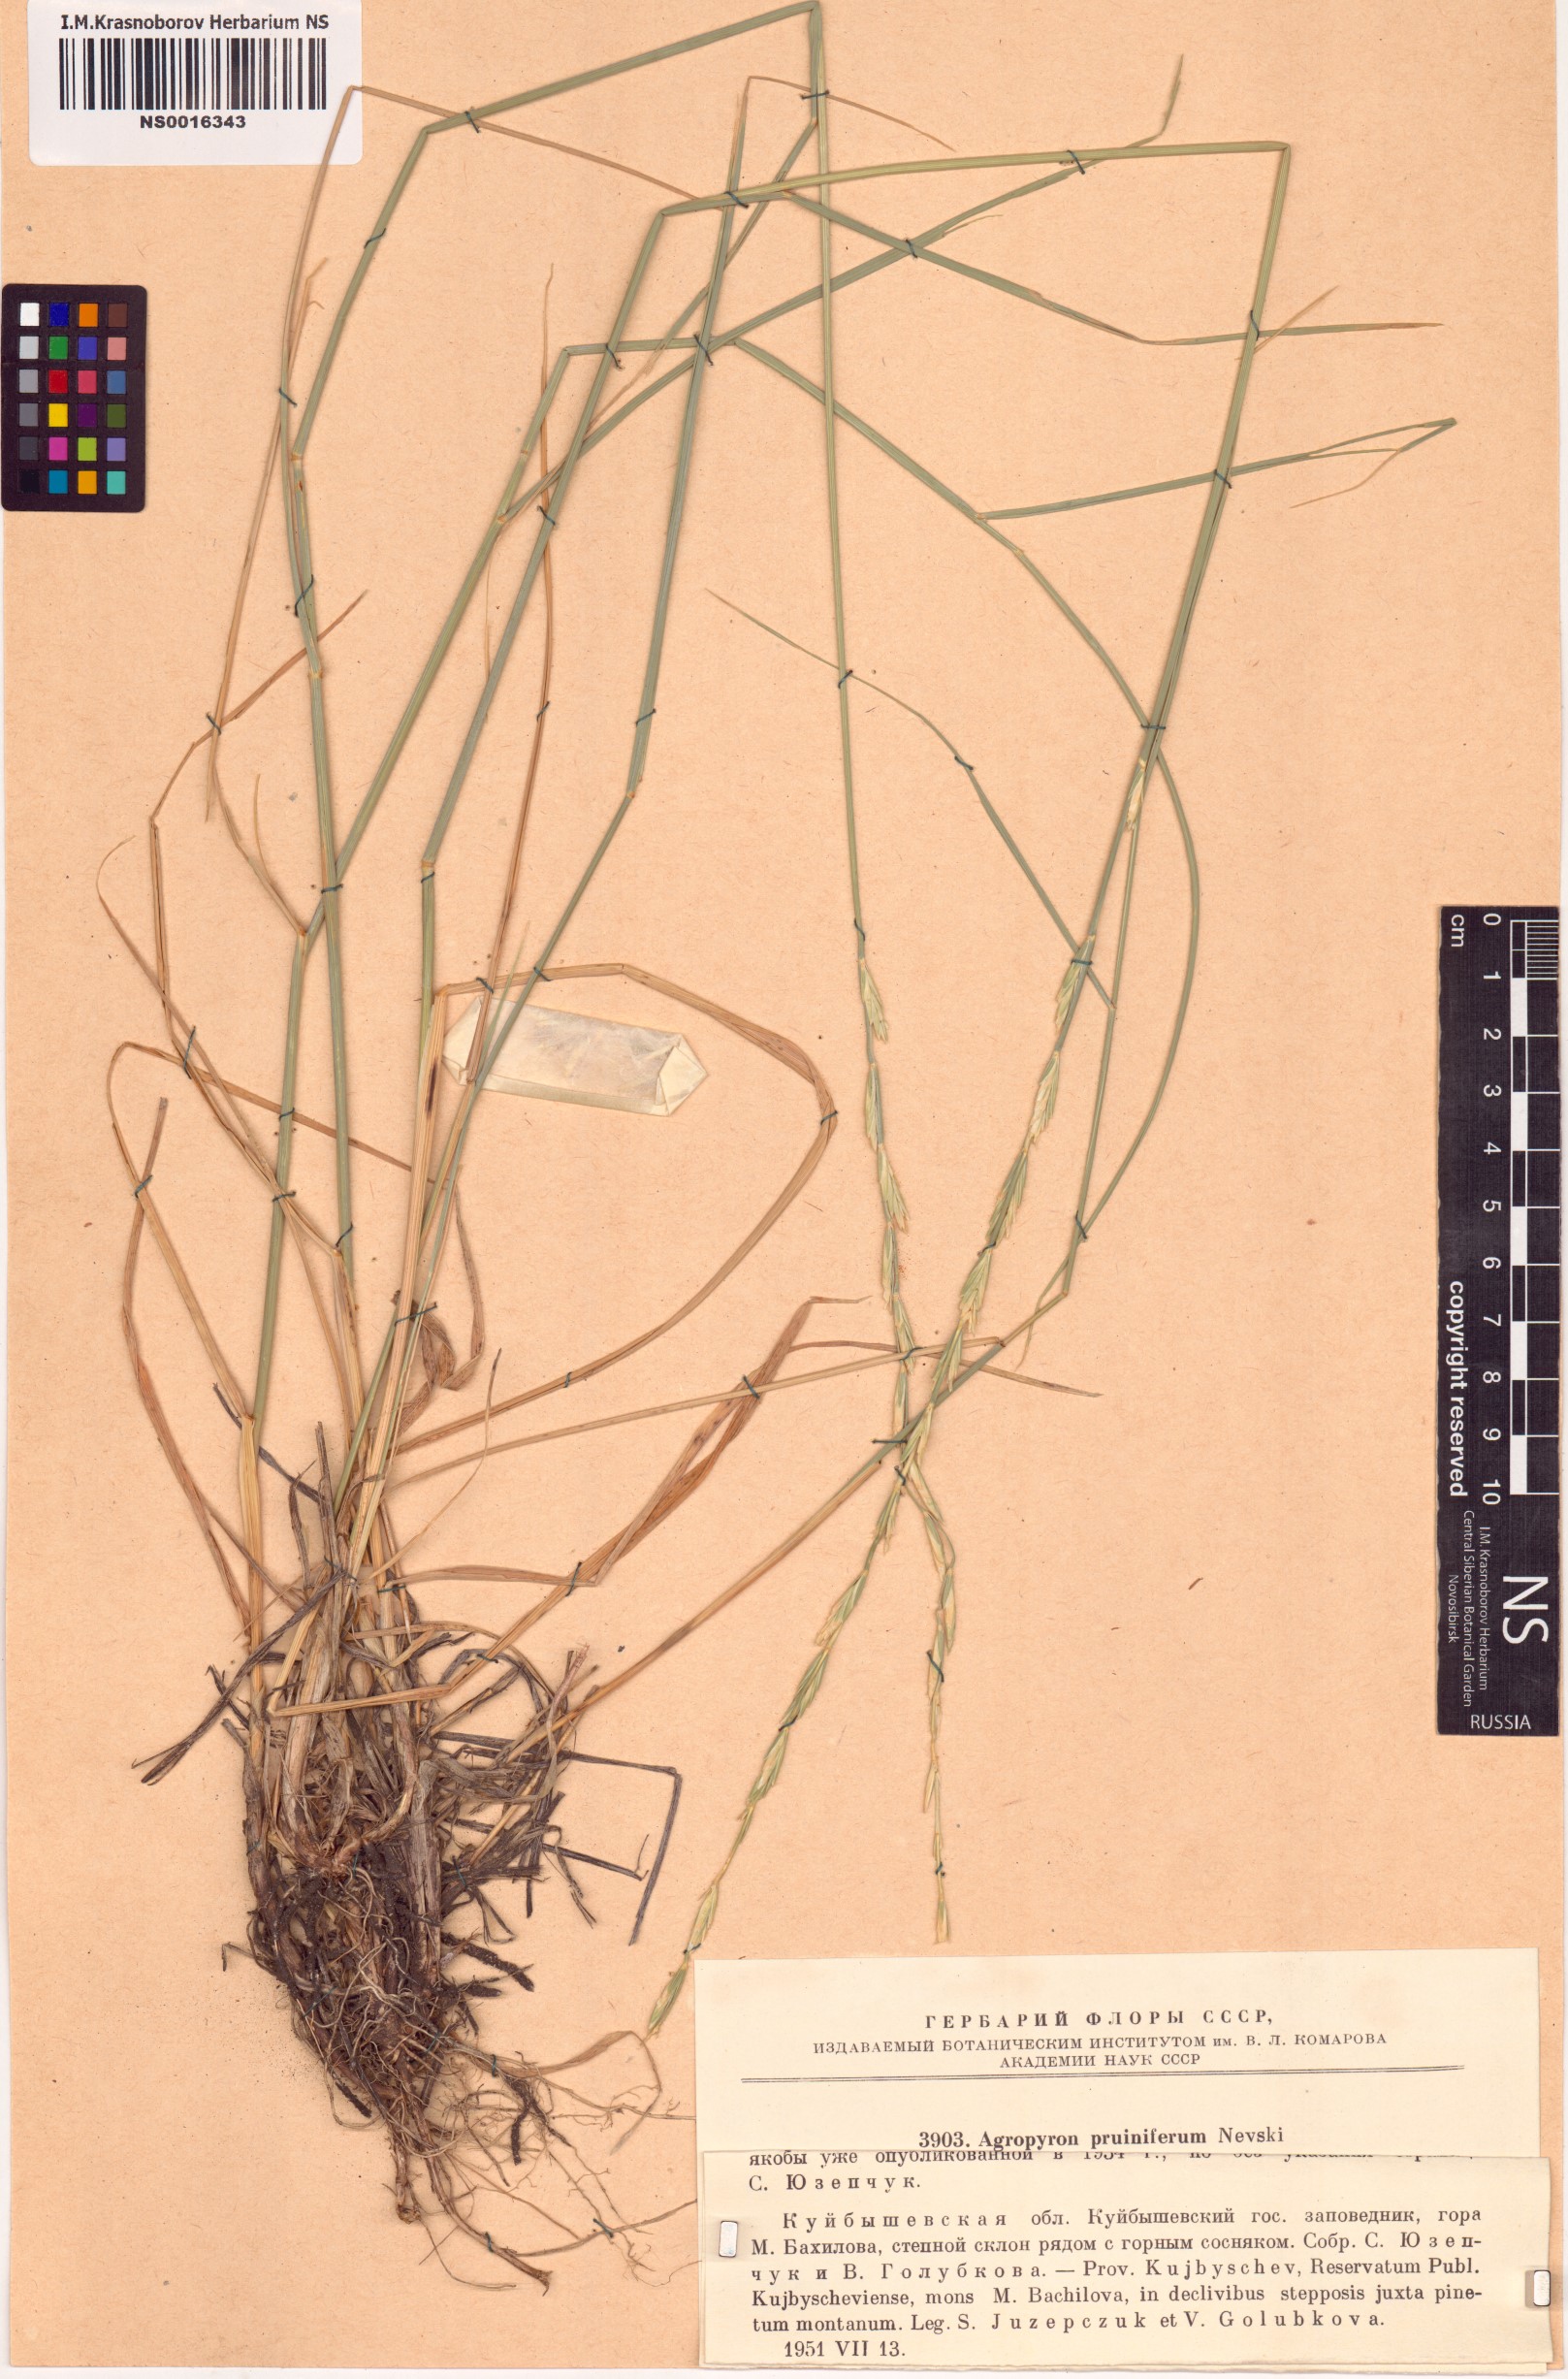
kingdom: Plantae
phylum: Tracheophyta
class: Liliopsida
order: Poales
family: Poaceae
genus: Pseudoroegneria
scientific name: Pseudoroegneria geniculata
